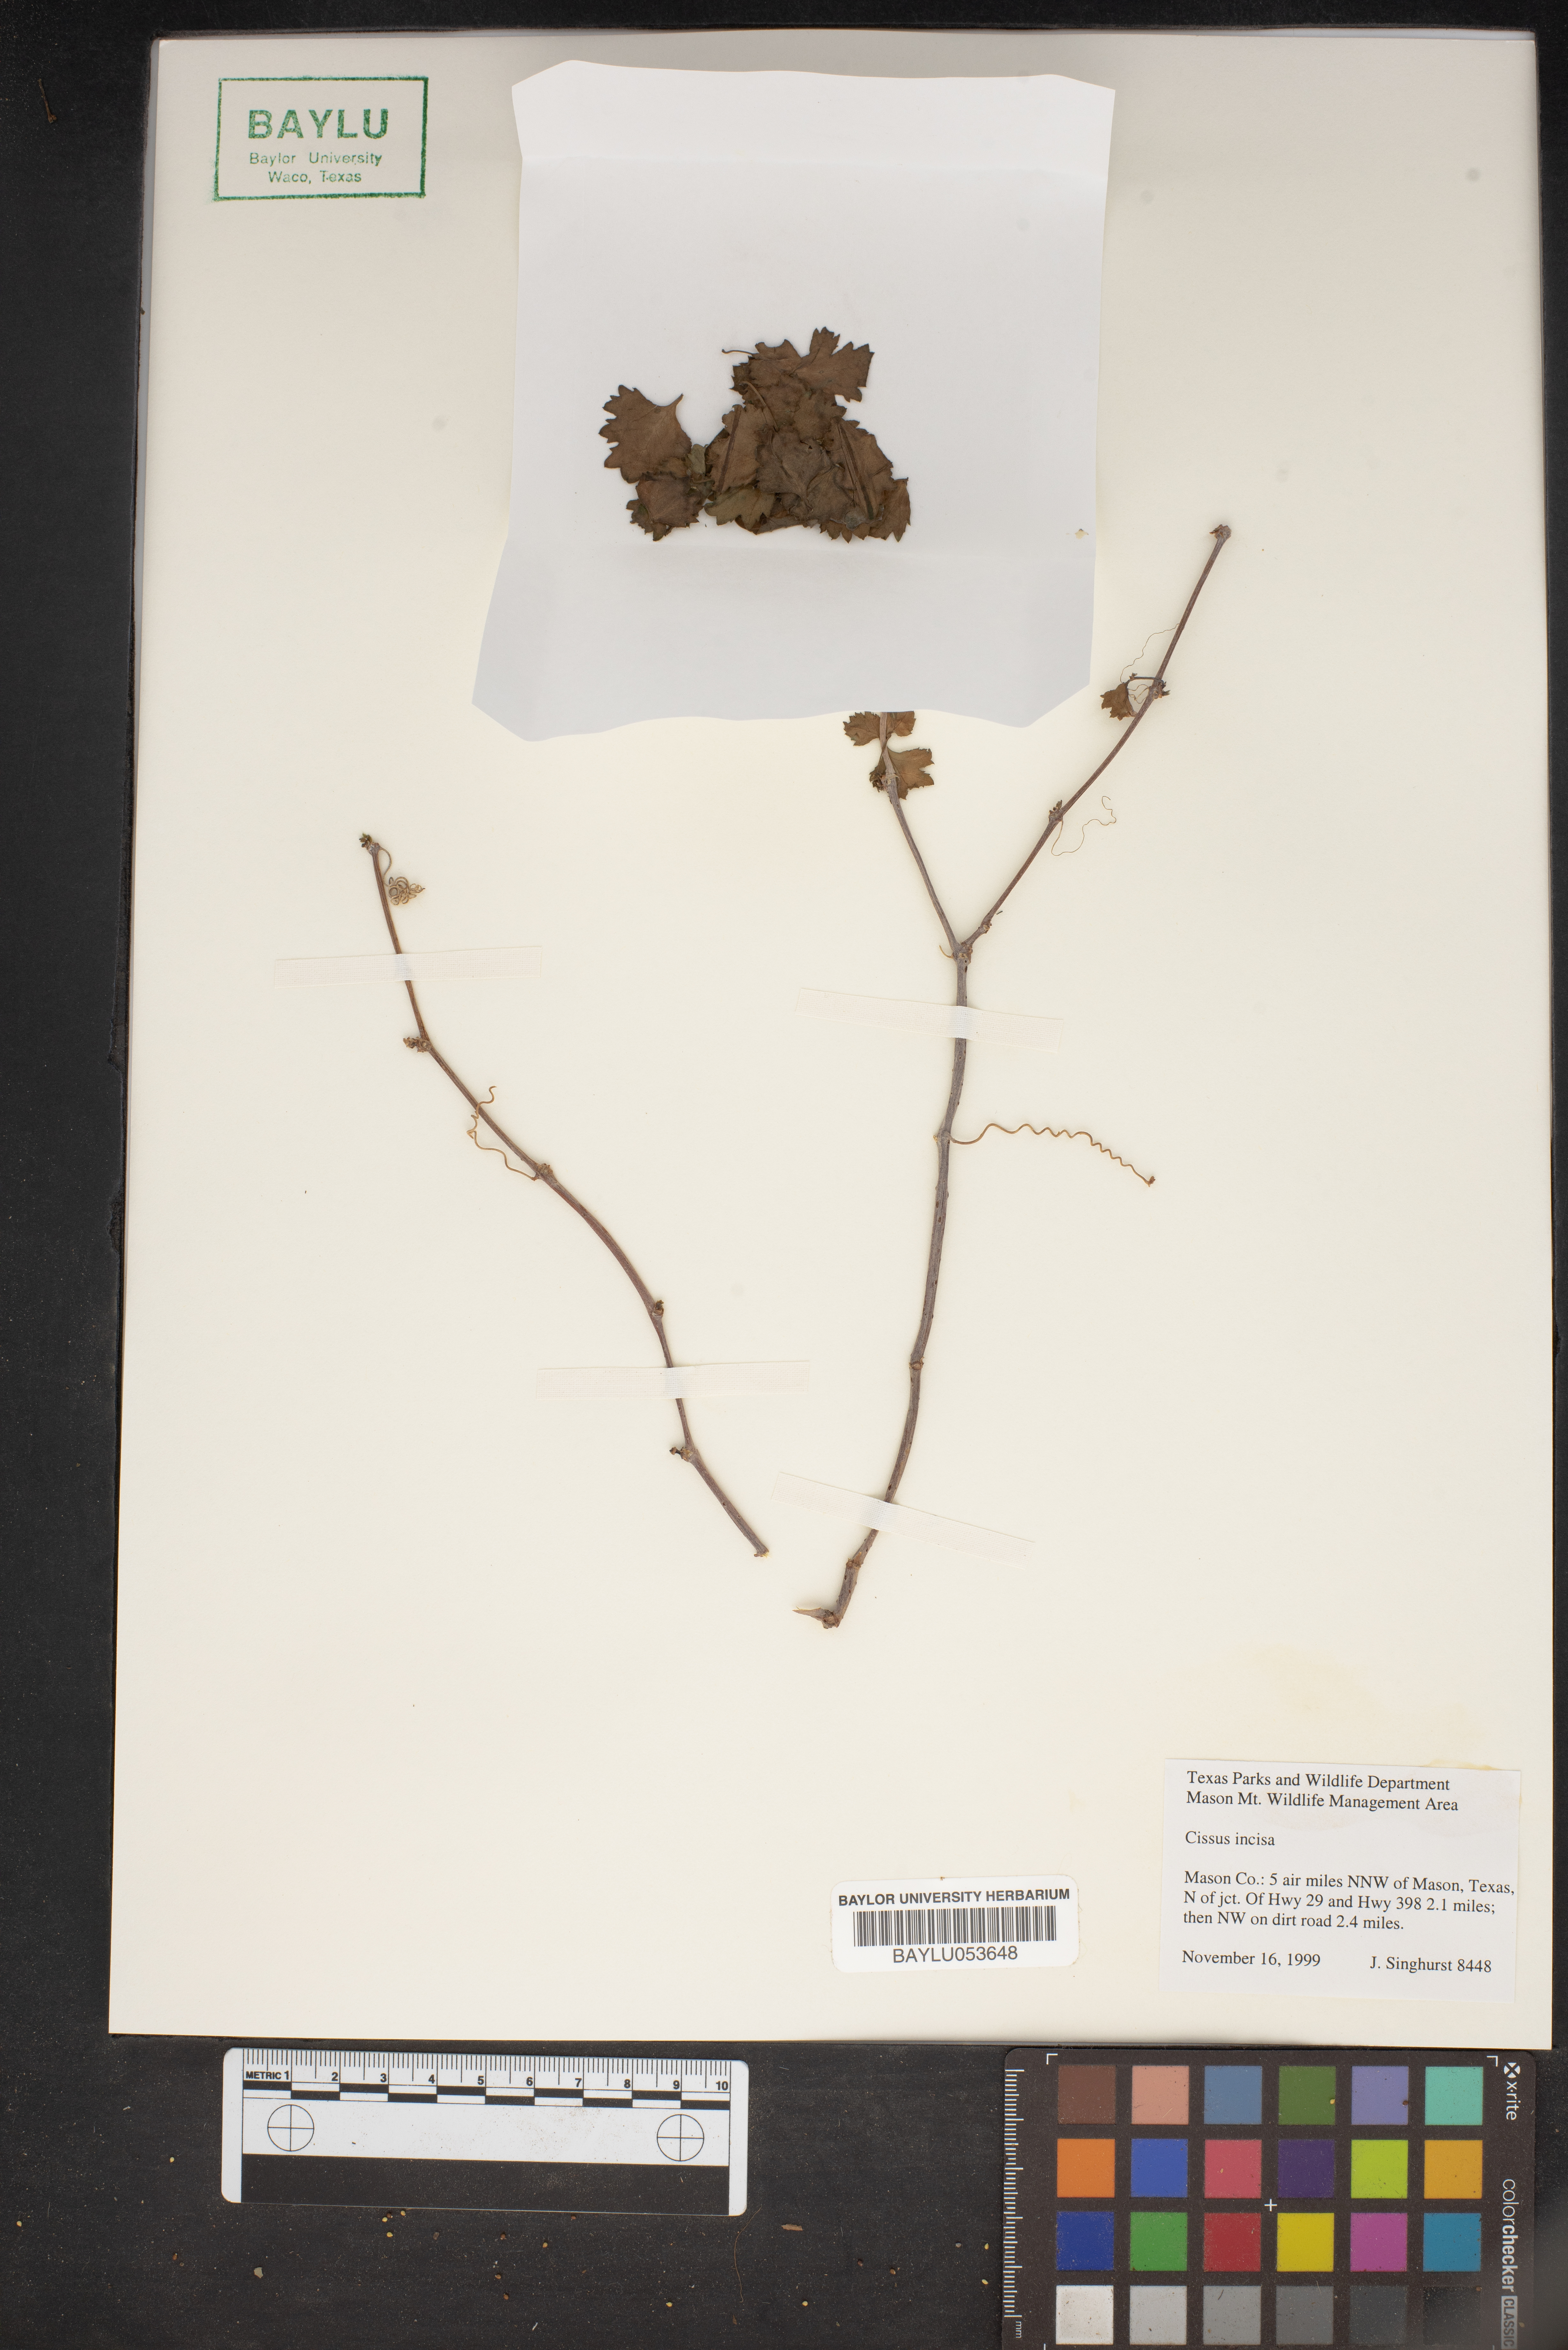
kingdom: Plantae
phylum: Tracheophyta
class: Magnoliopsida
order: Vitales
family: Vitaceae
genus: Cissus
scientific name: Cissus trifoliata
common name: Vine-sorrel
